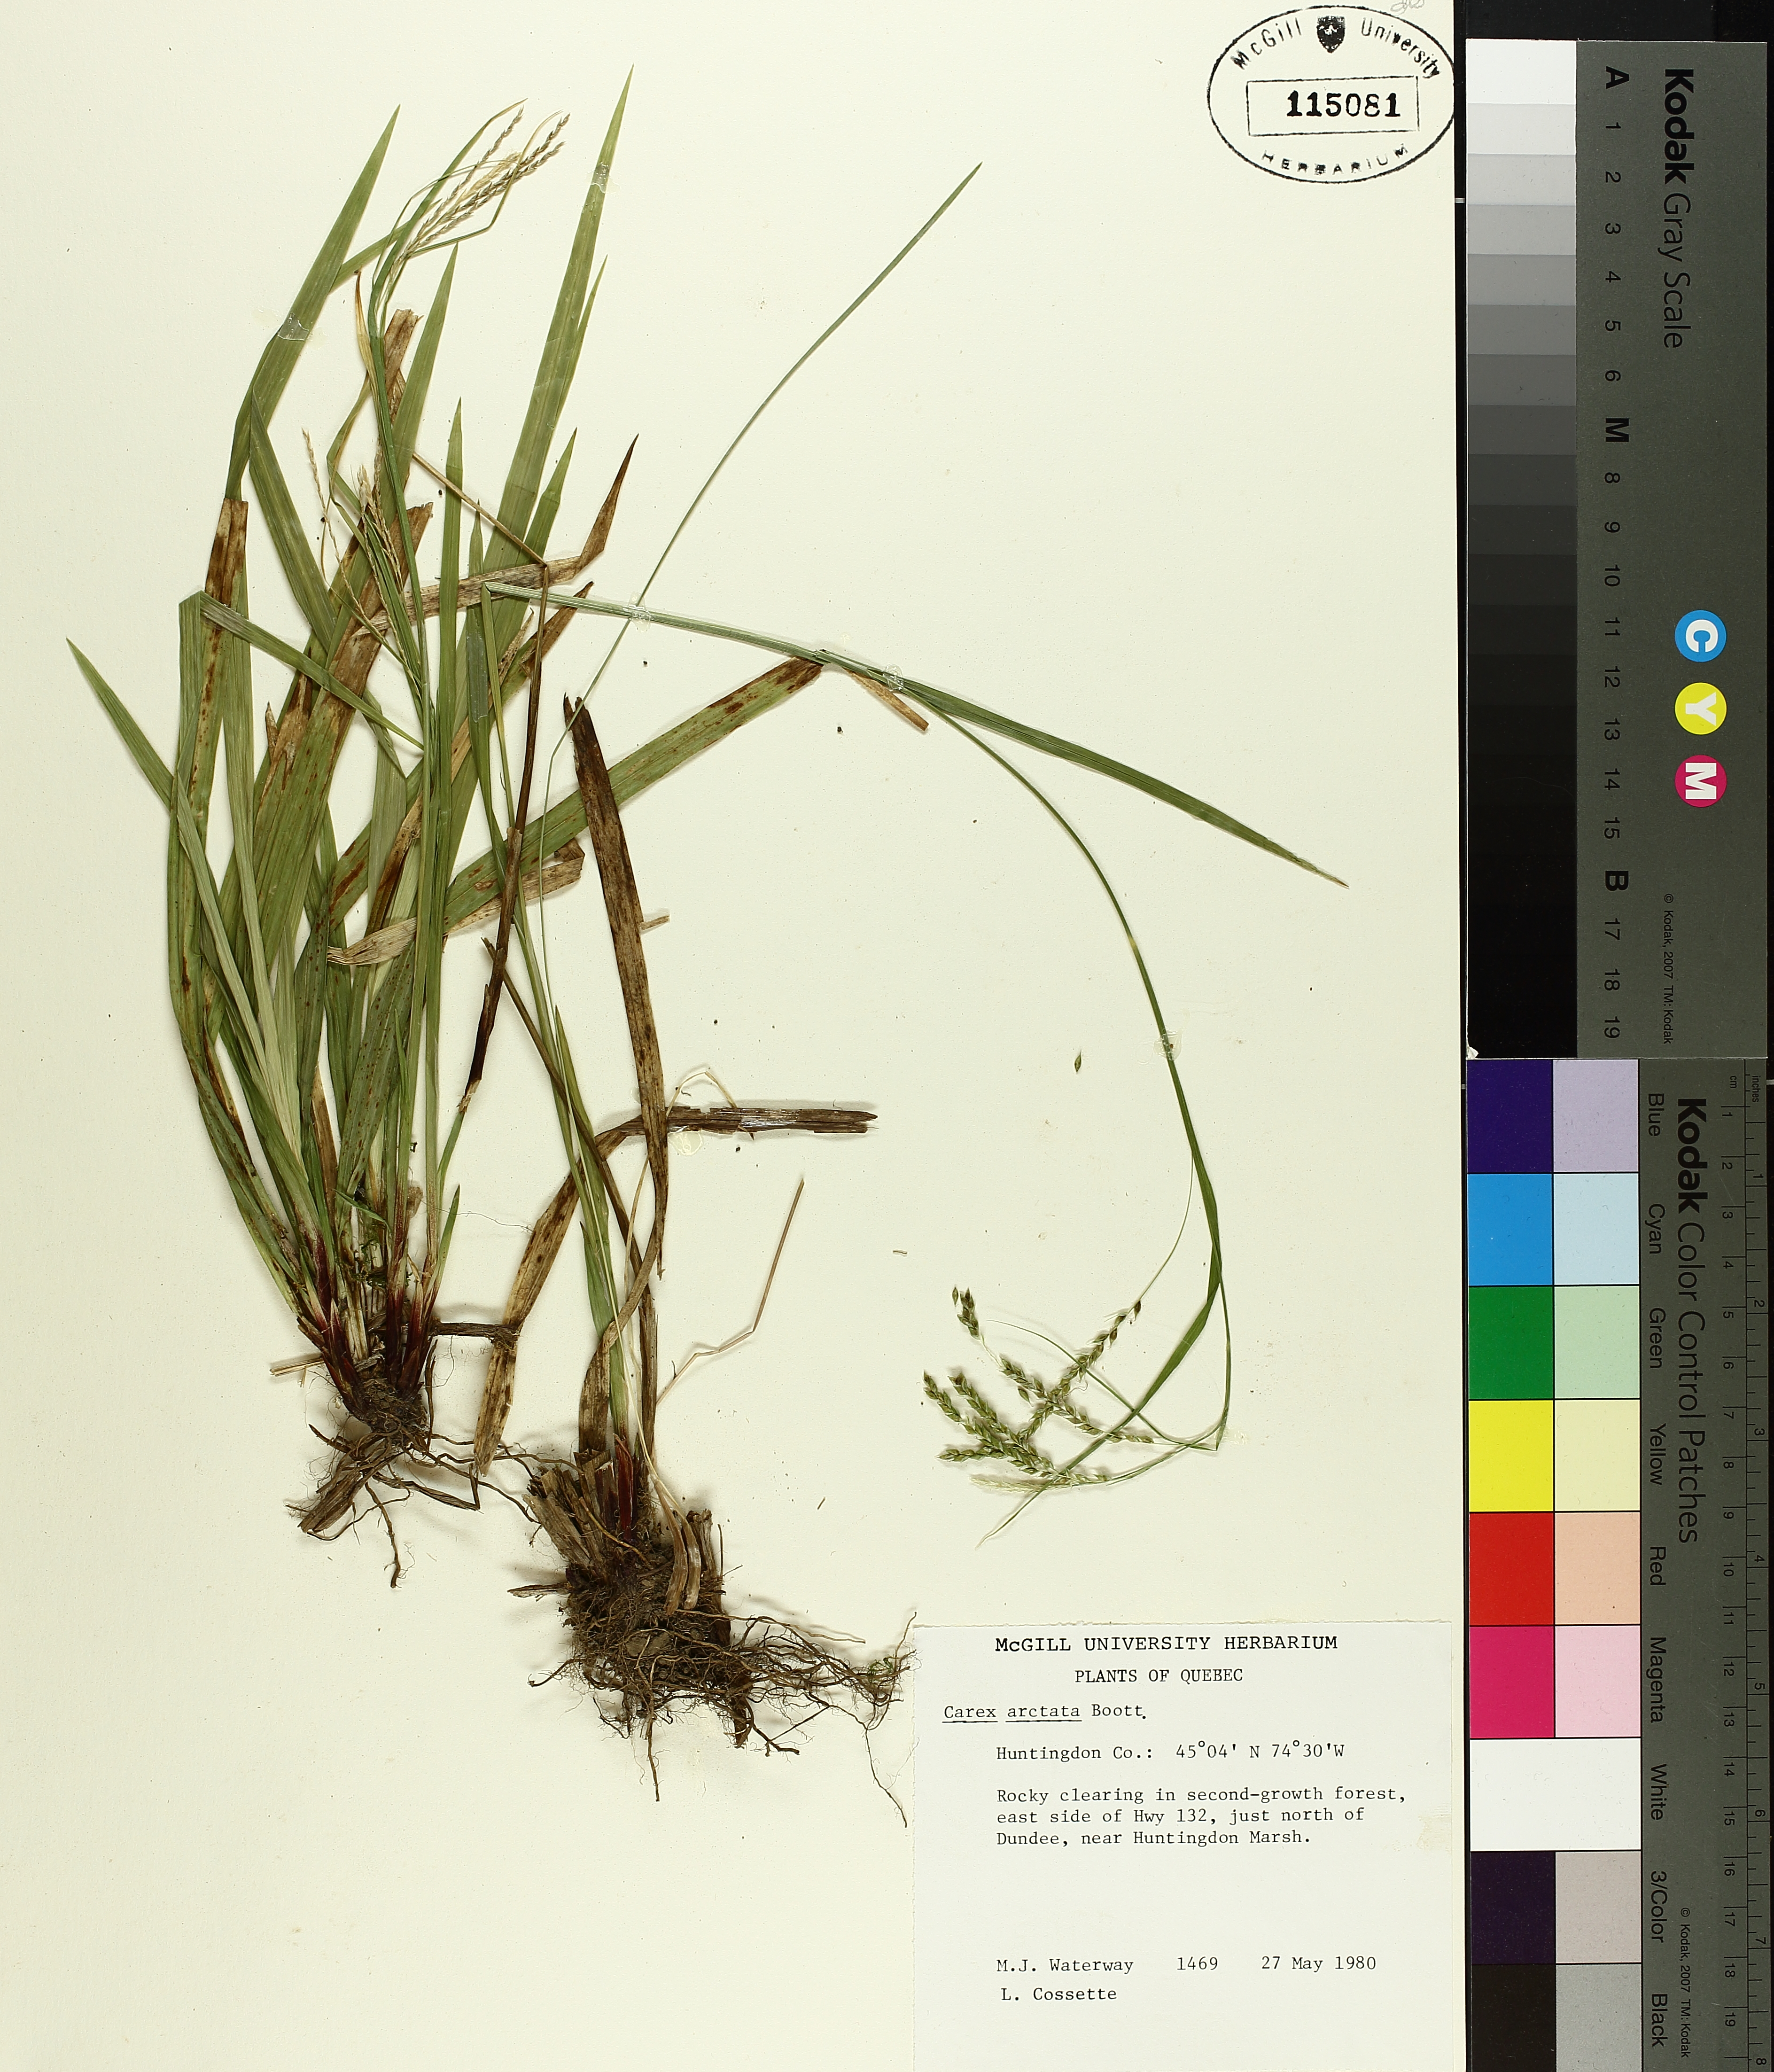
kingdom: Plantae
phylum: Tracheophyta
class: Liliopsida
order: Poales
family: Cyperaceae
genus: Carex
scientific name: Carex arctata
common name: Black sedge
